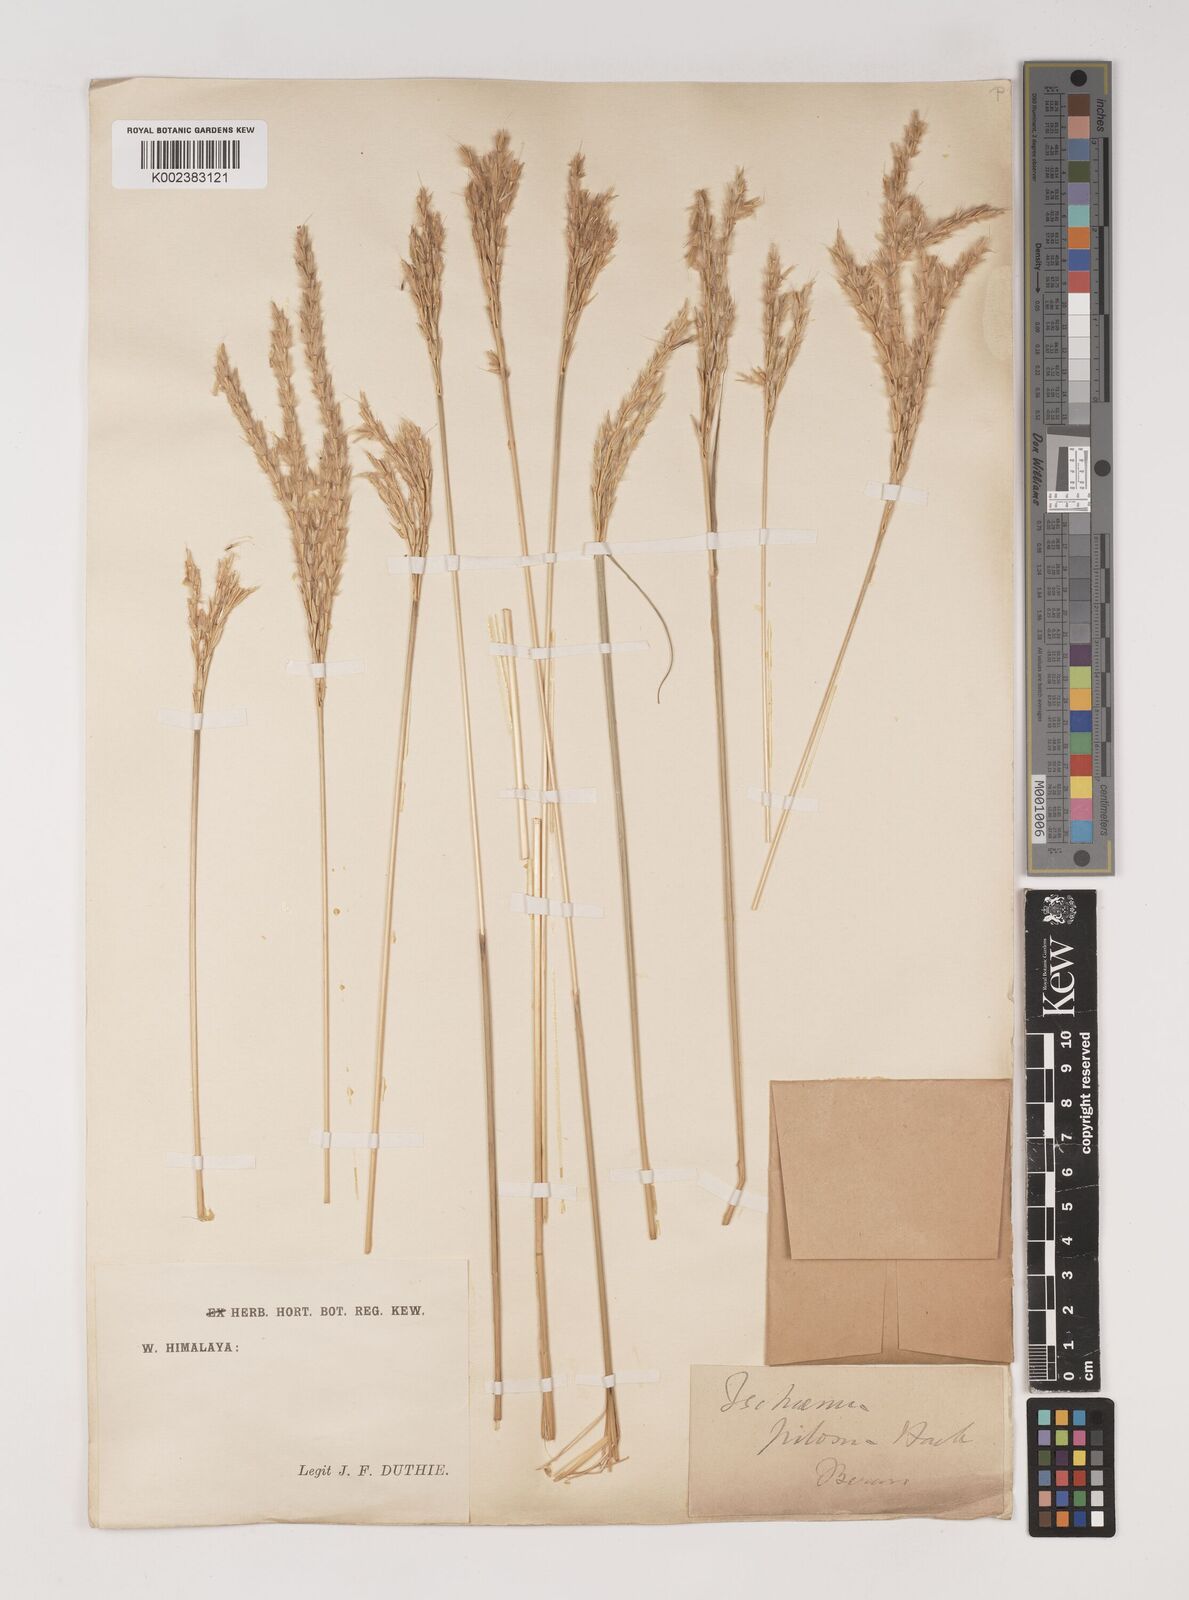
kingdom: Plantae
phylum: Tracheophyta
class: Liliopsida
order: Poales
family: Poaceae
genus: Ischaemum
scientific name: Ischaemum afrum
